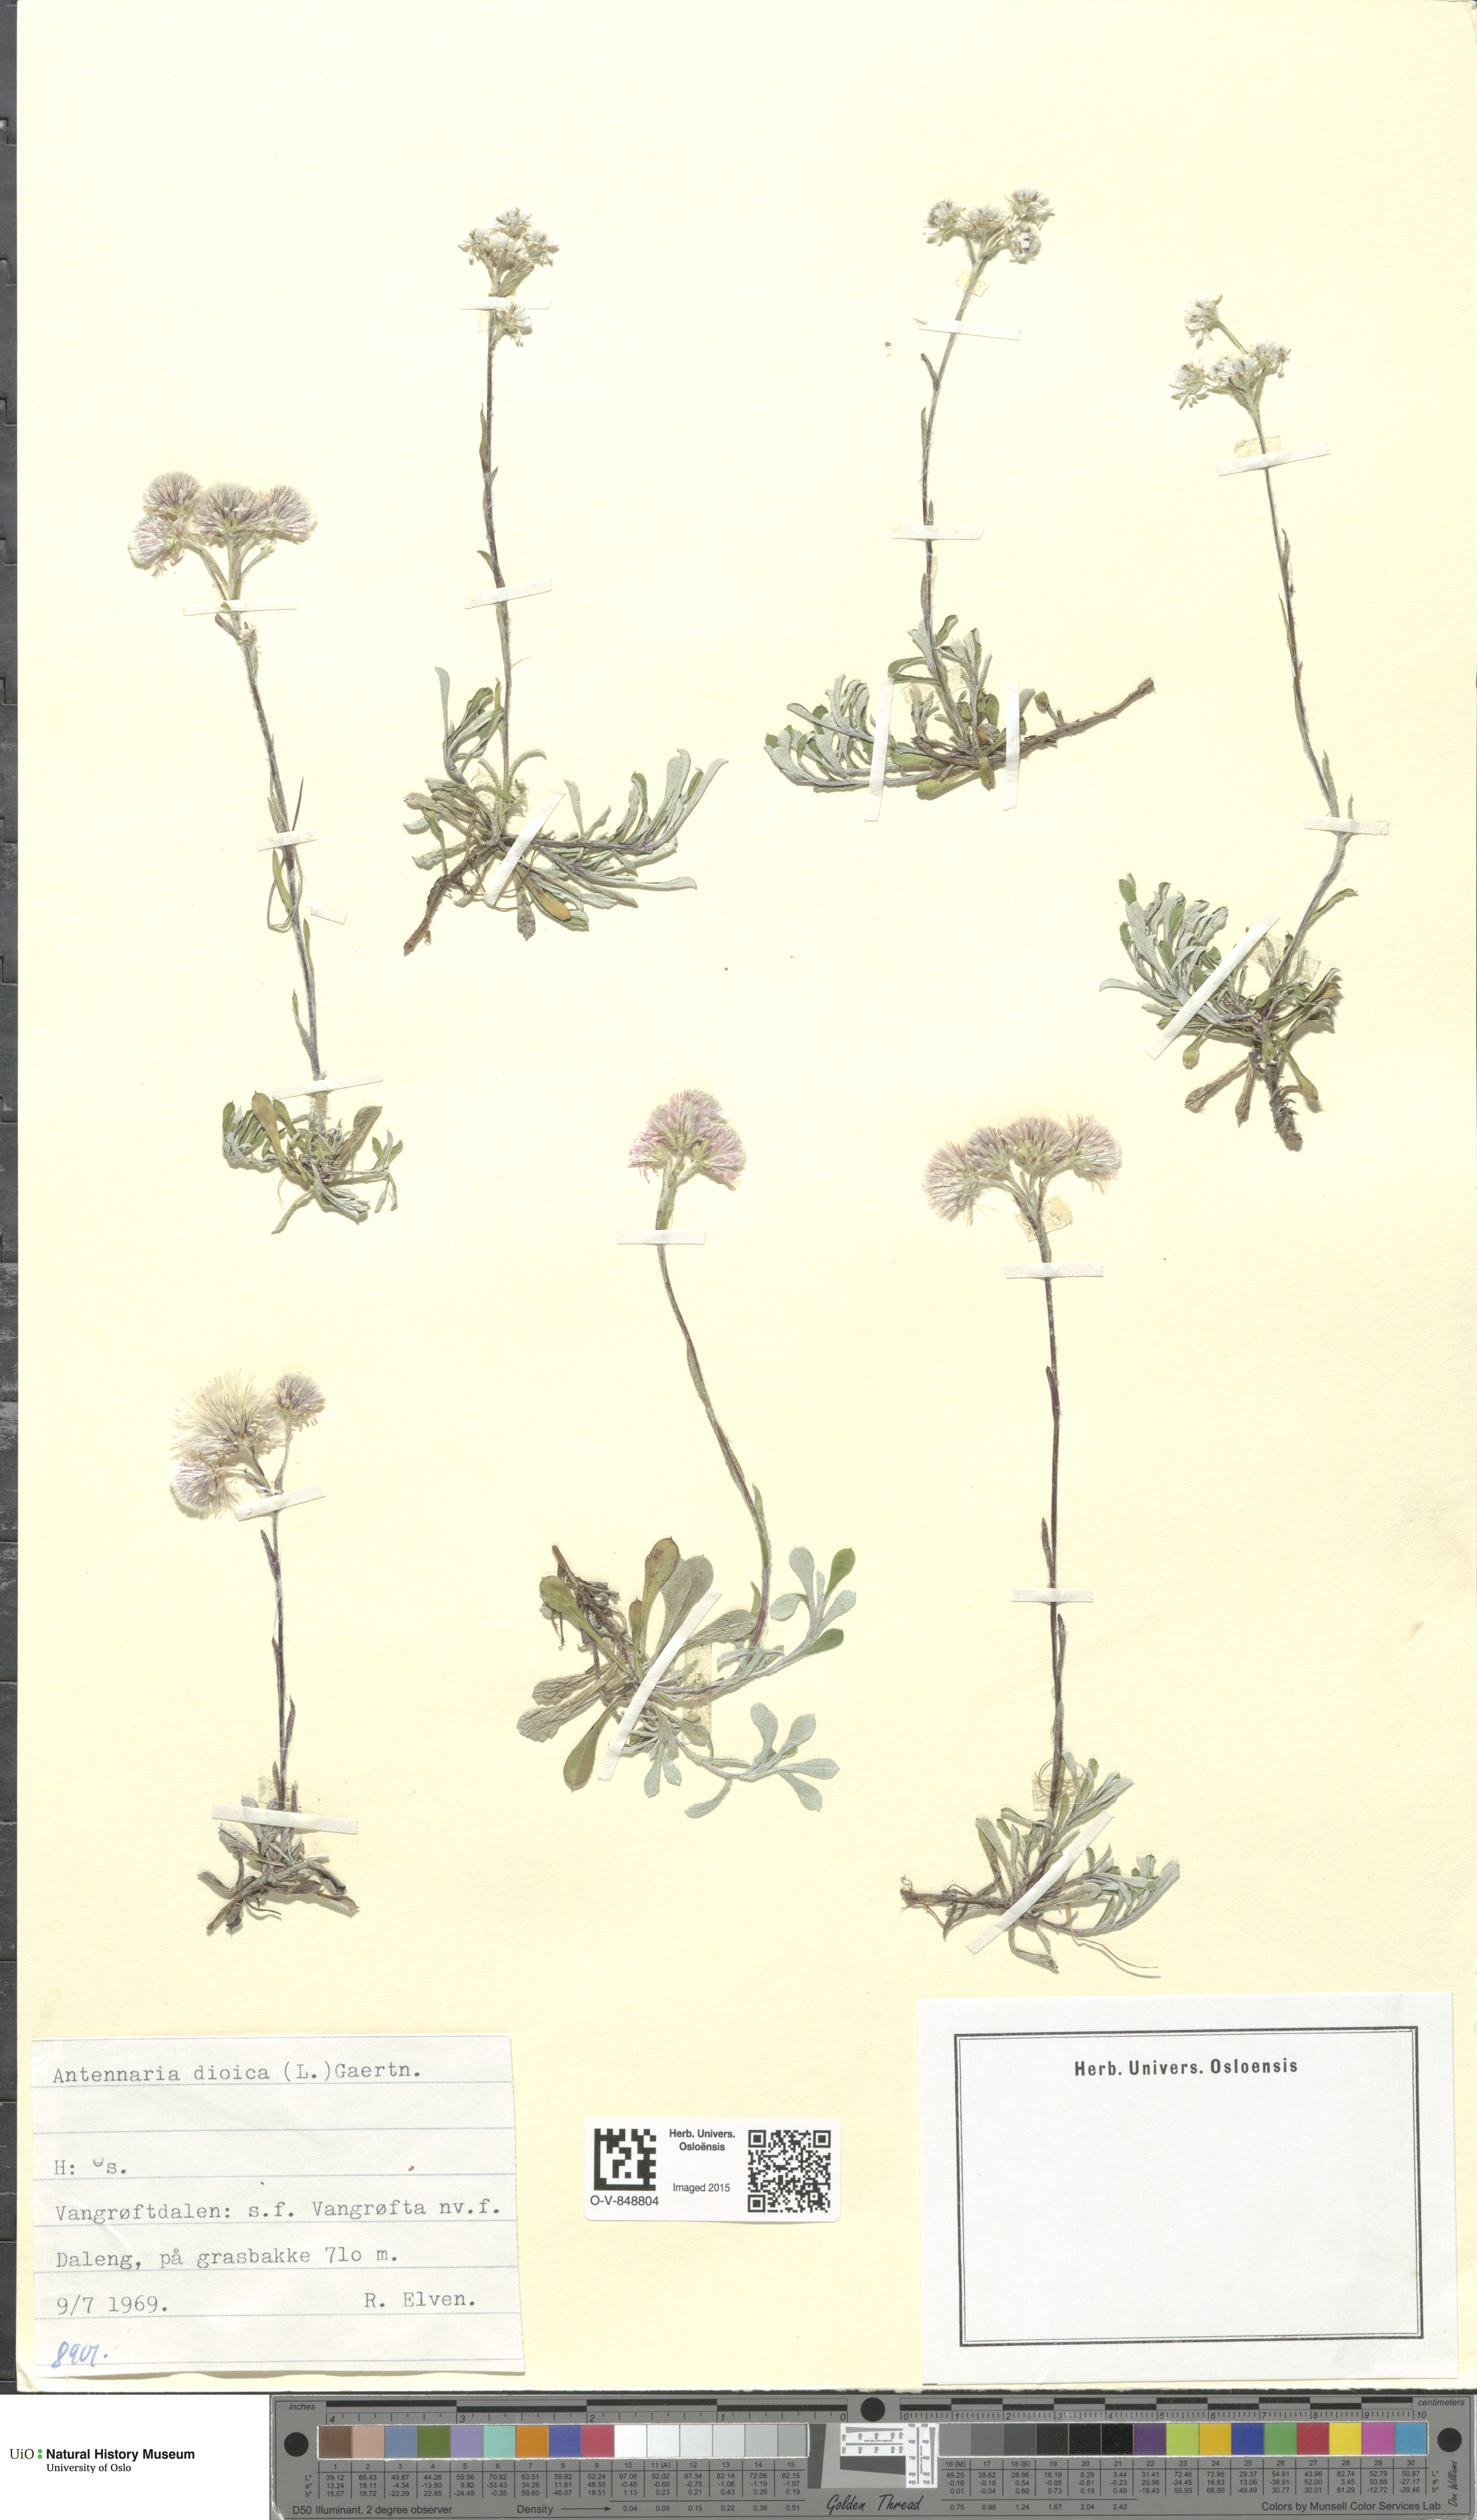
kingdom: Plantae
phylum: Tracheophyta
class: Magnoliopsida
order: Asterales
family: Asteraceae
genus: Antennaria
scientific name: Antennaria dioica
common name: Mountain everlasting
